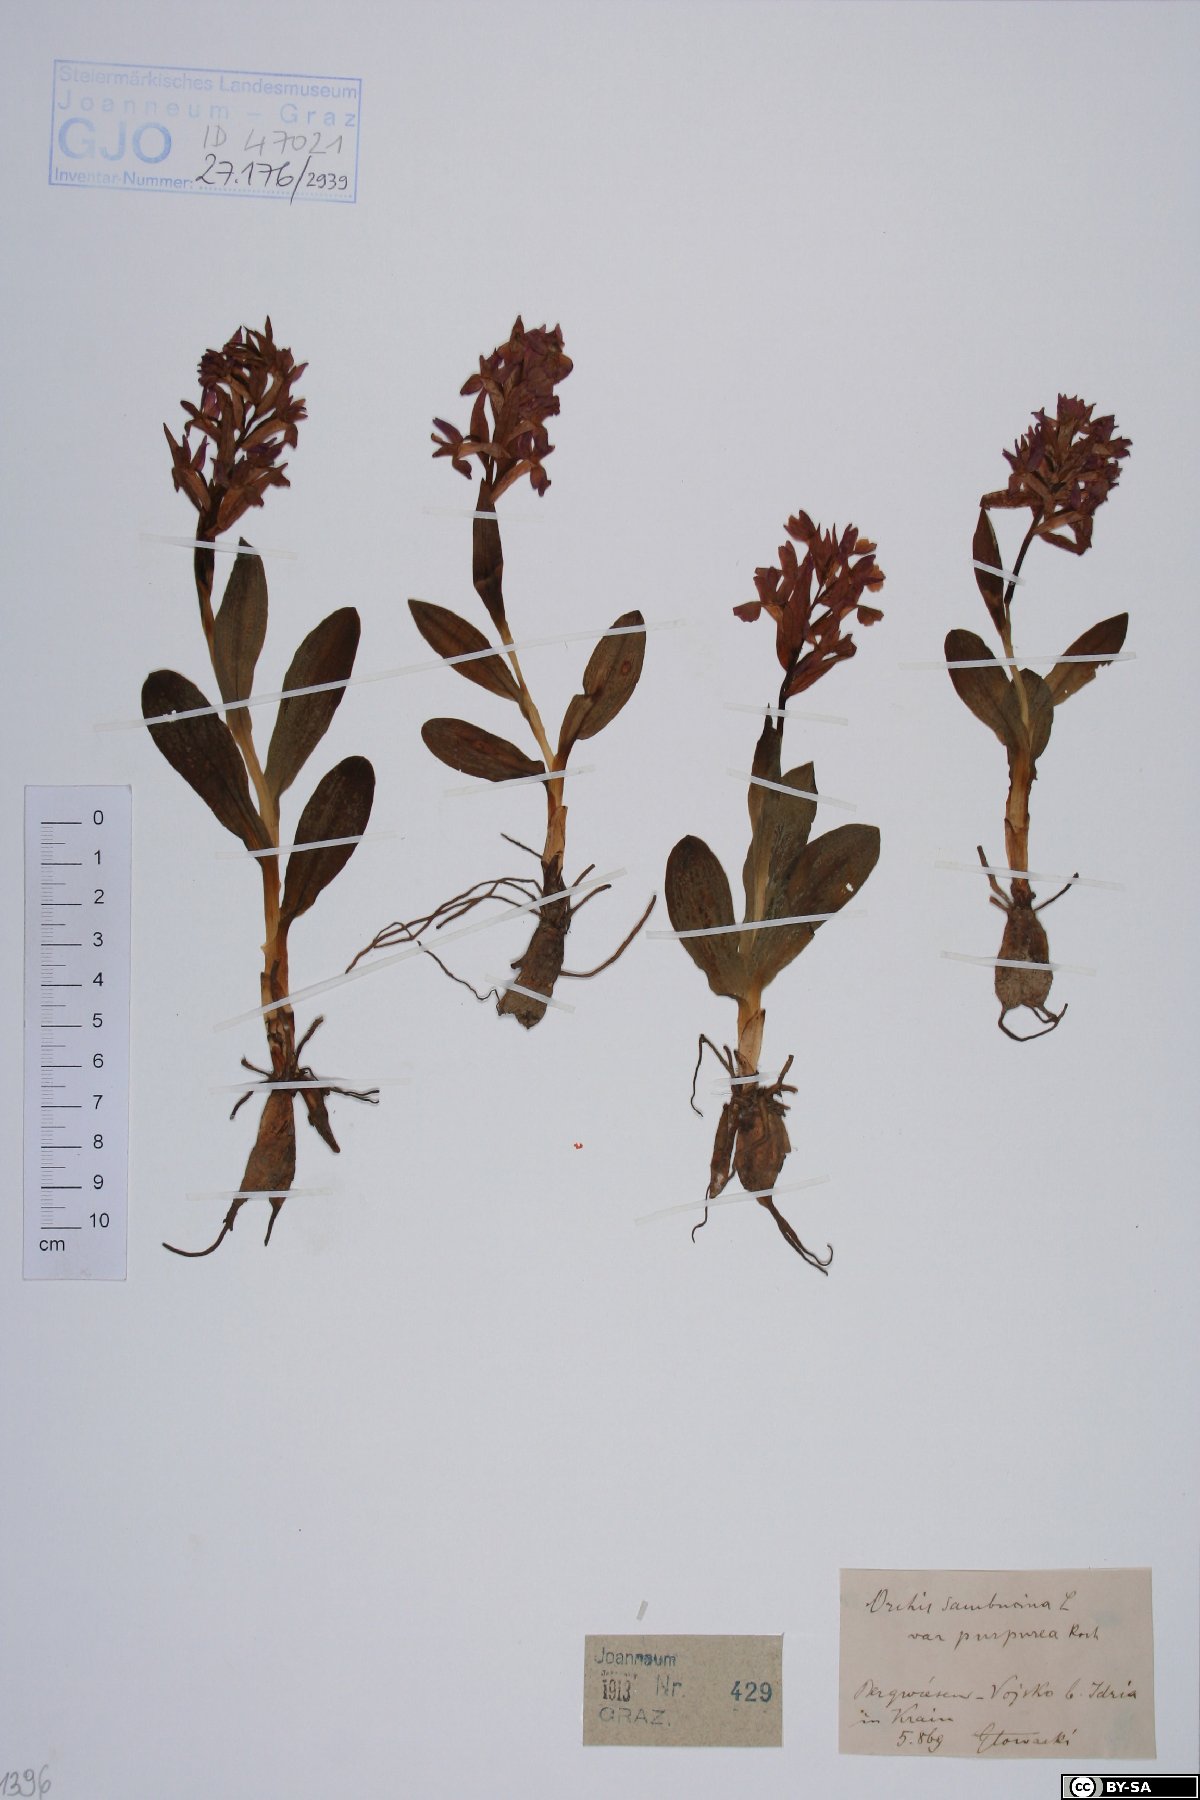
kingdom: Plantae
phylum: Tracheophyta
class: Liliopsida
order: Asparagales
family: Orchidaceae
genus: Dactylorhiza
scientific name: Dactylorhiza sambucina
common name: Elder-flowered orchid
